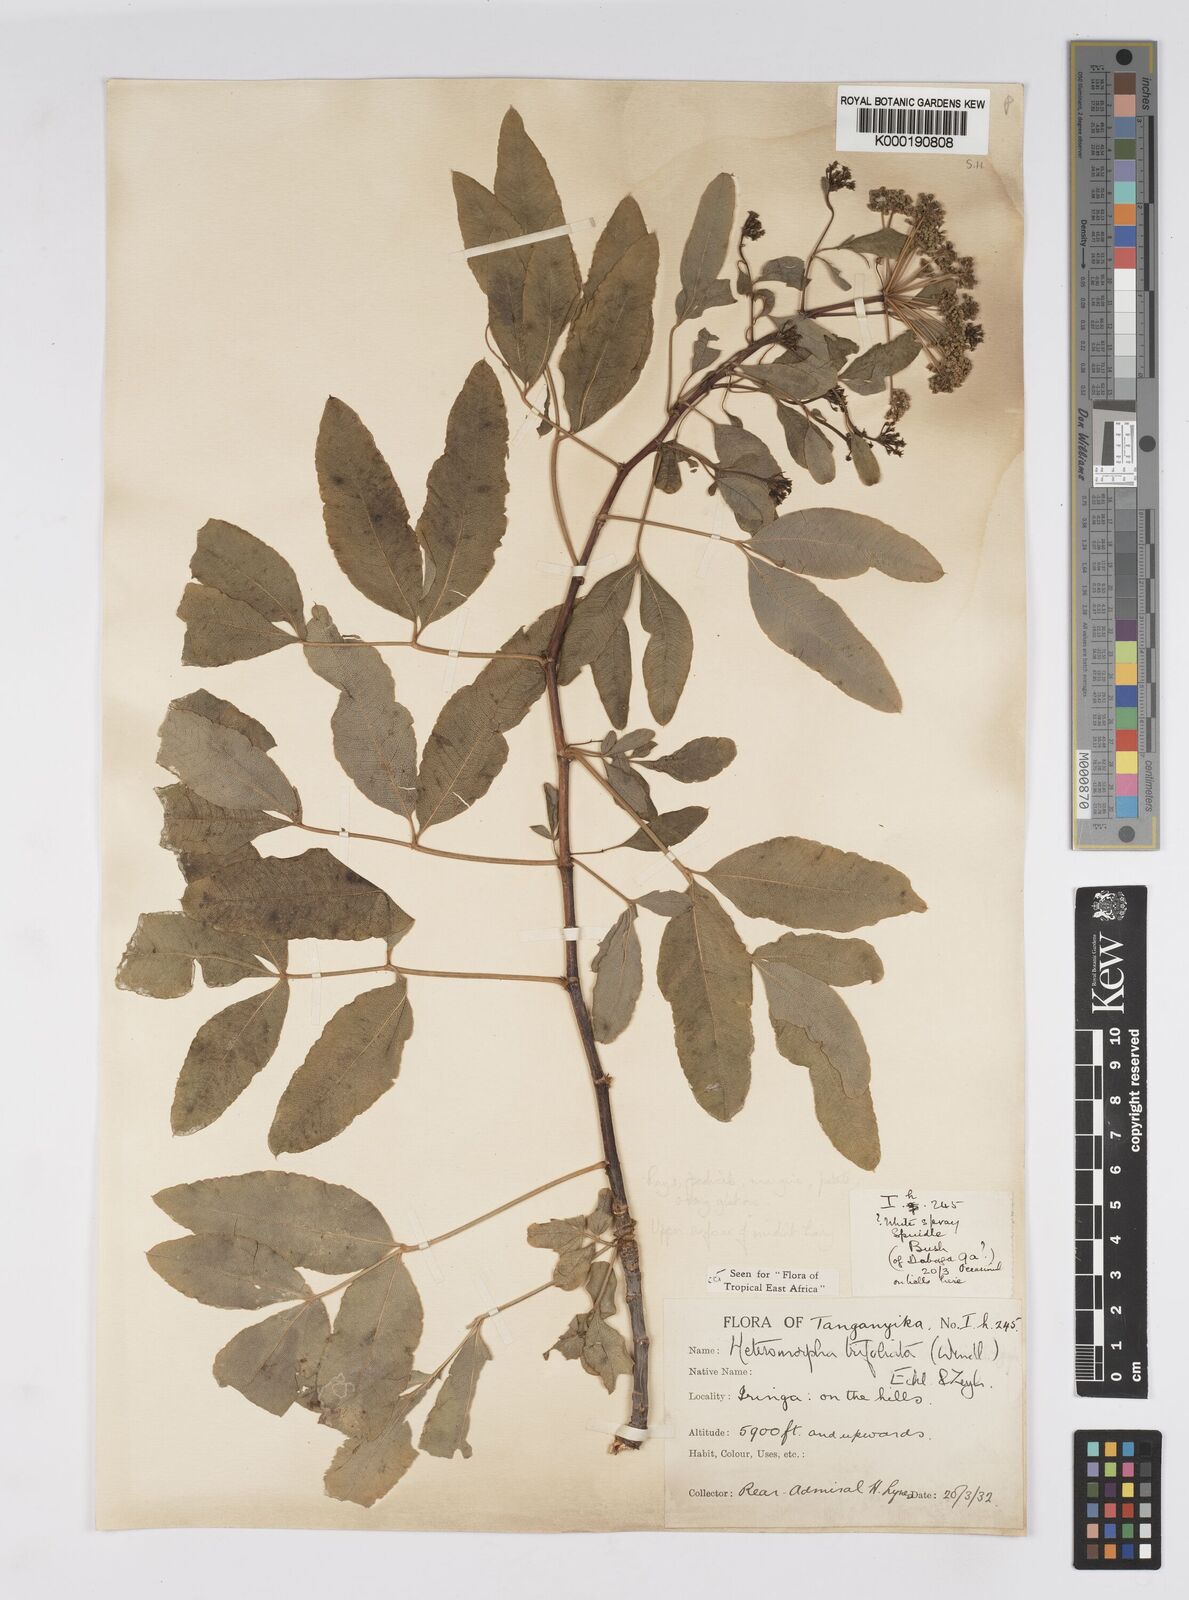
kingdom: Plantae
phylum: Tracheophyta
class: Magnoliopsida
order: Apiales
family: Apiaceae
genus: Heteromorpha
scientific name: Heteromorpha arborescens
